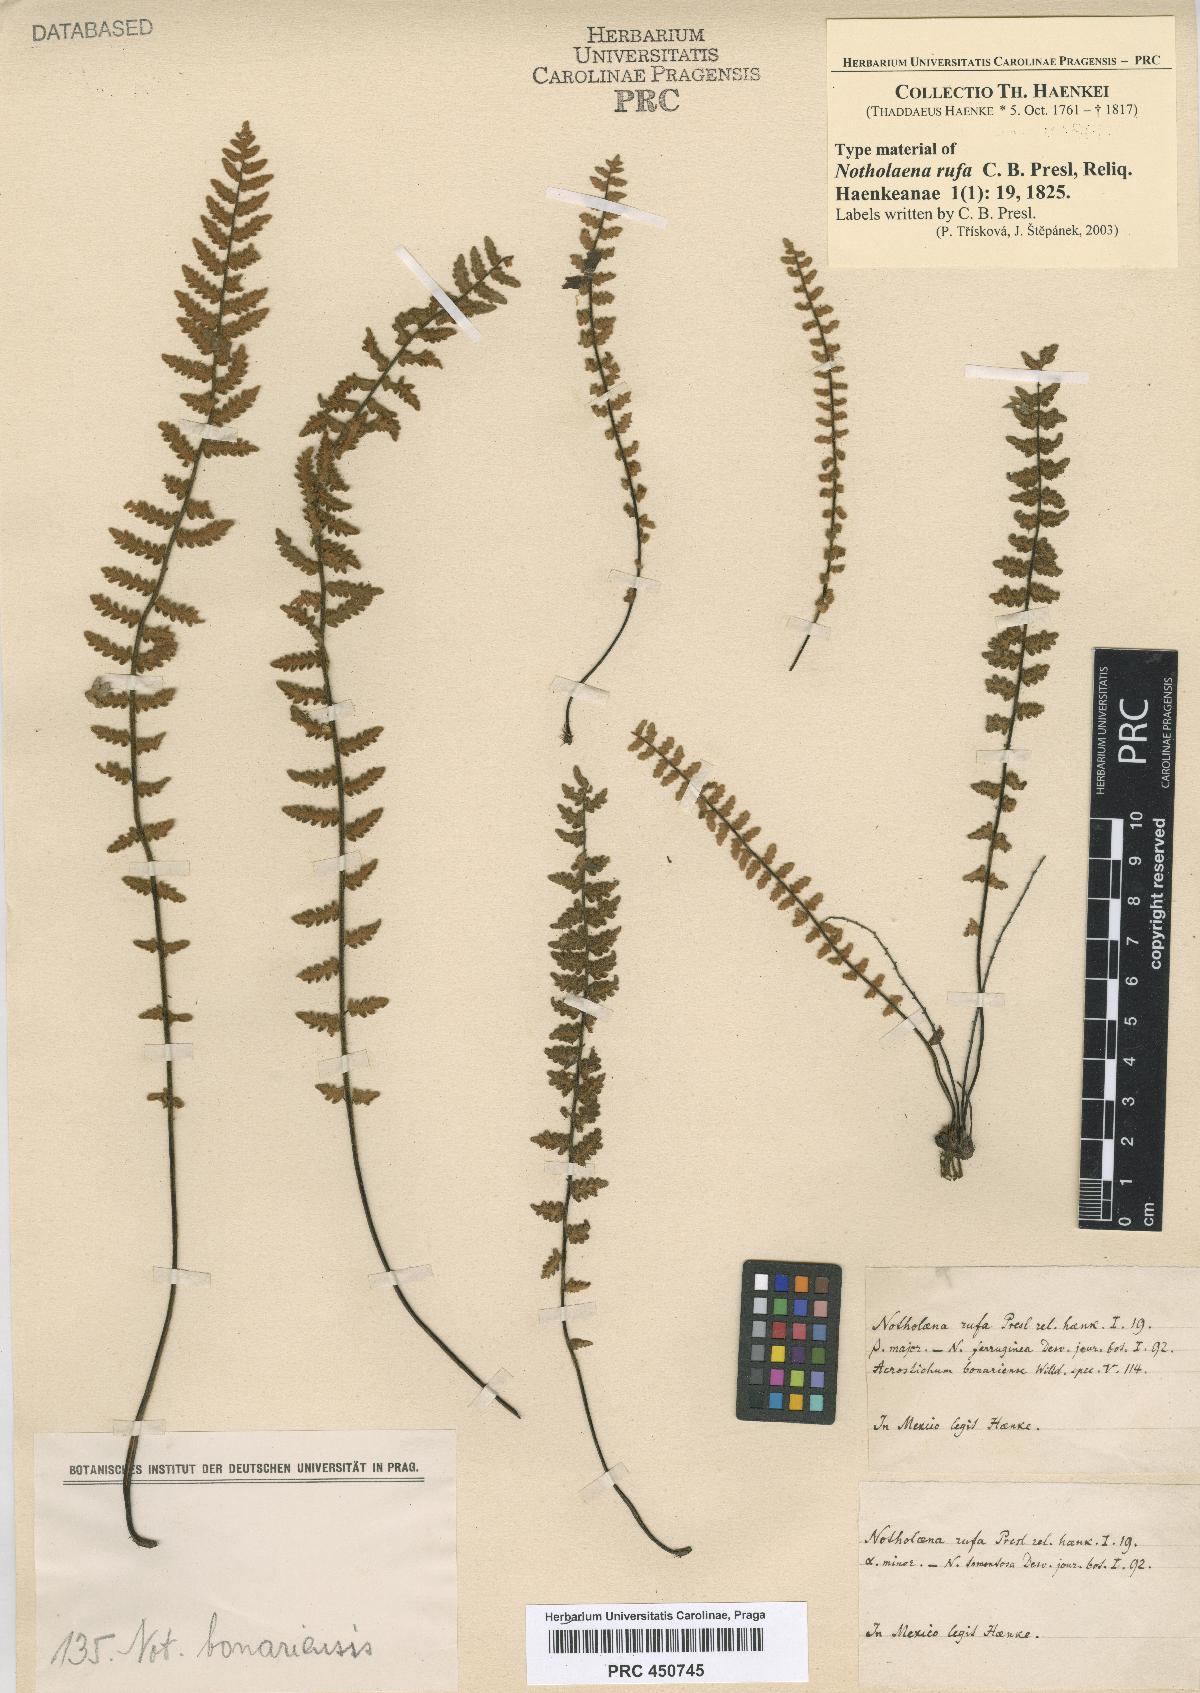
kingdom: Plantae
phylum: Tracheophyta
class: Polypodiopsida
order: Polypodiales
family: Pteridaceae
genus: Myriopteris
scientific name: Myriopteris aurea
